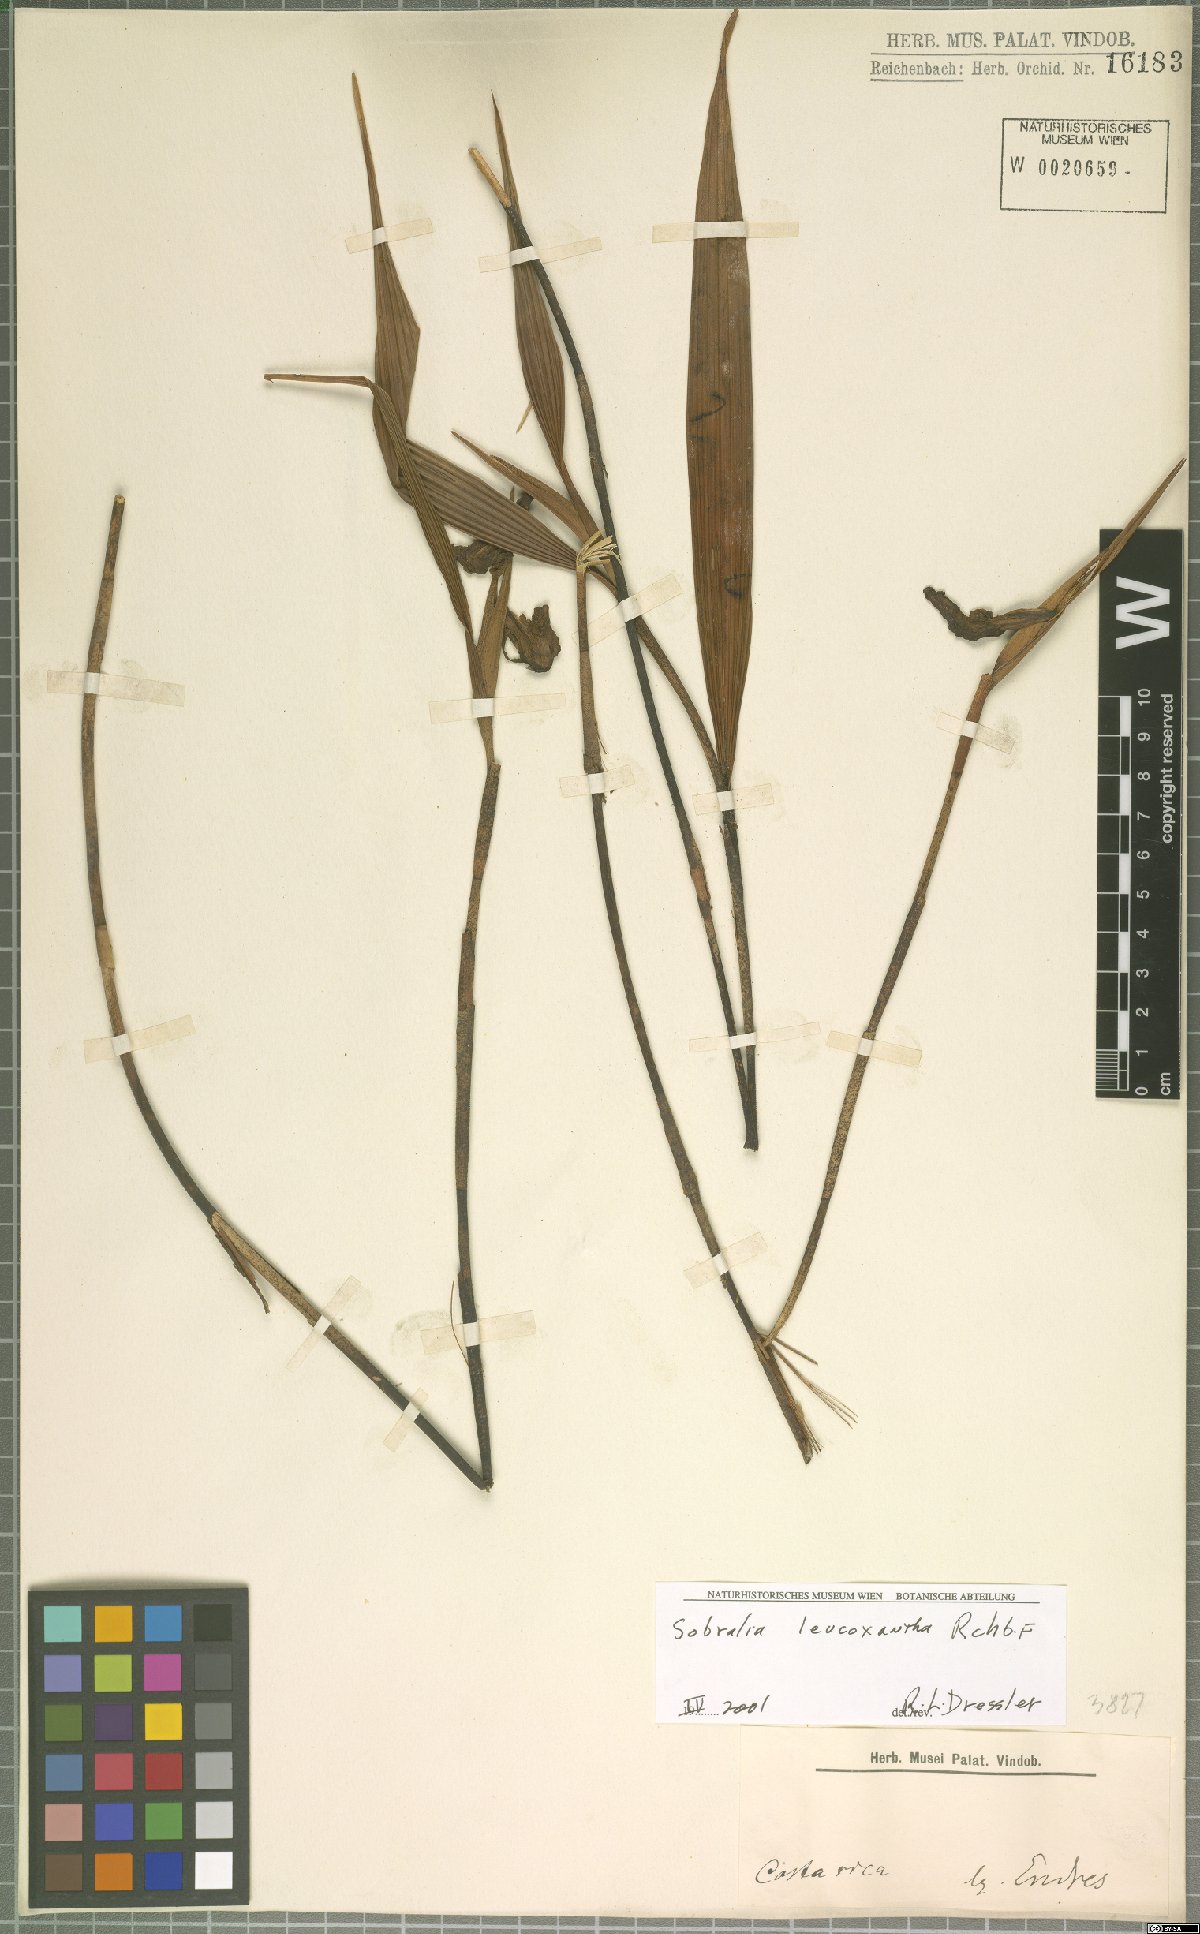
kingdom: Plantae
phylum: Tracheophyta
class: Liliopsida
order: Asparagales
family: Orchidaceae
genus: Sobralia
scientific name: Sobralia leucoxantha
